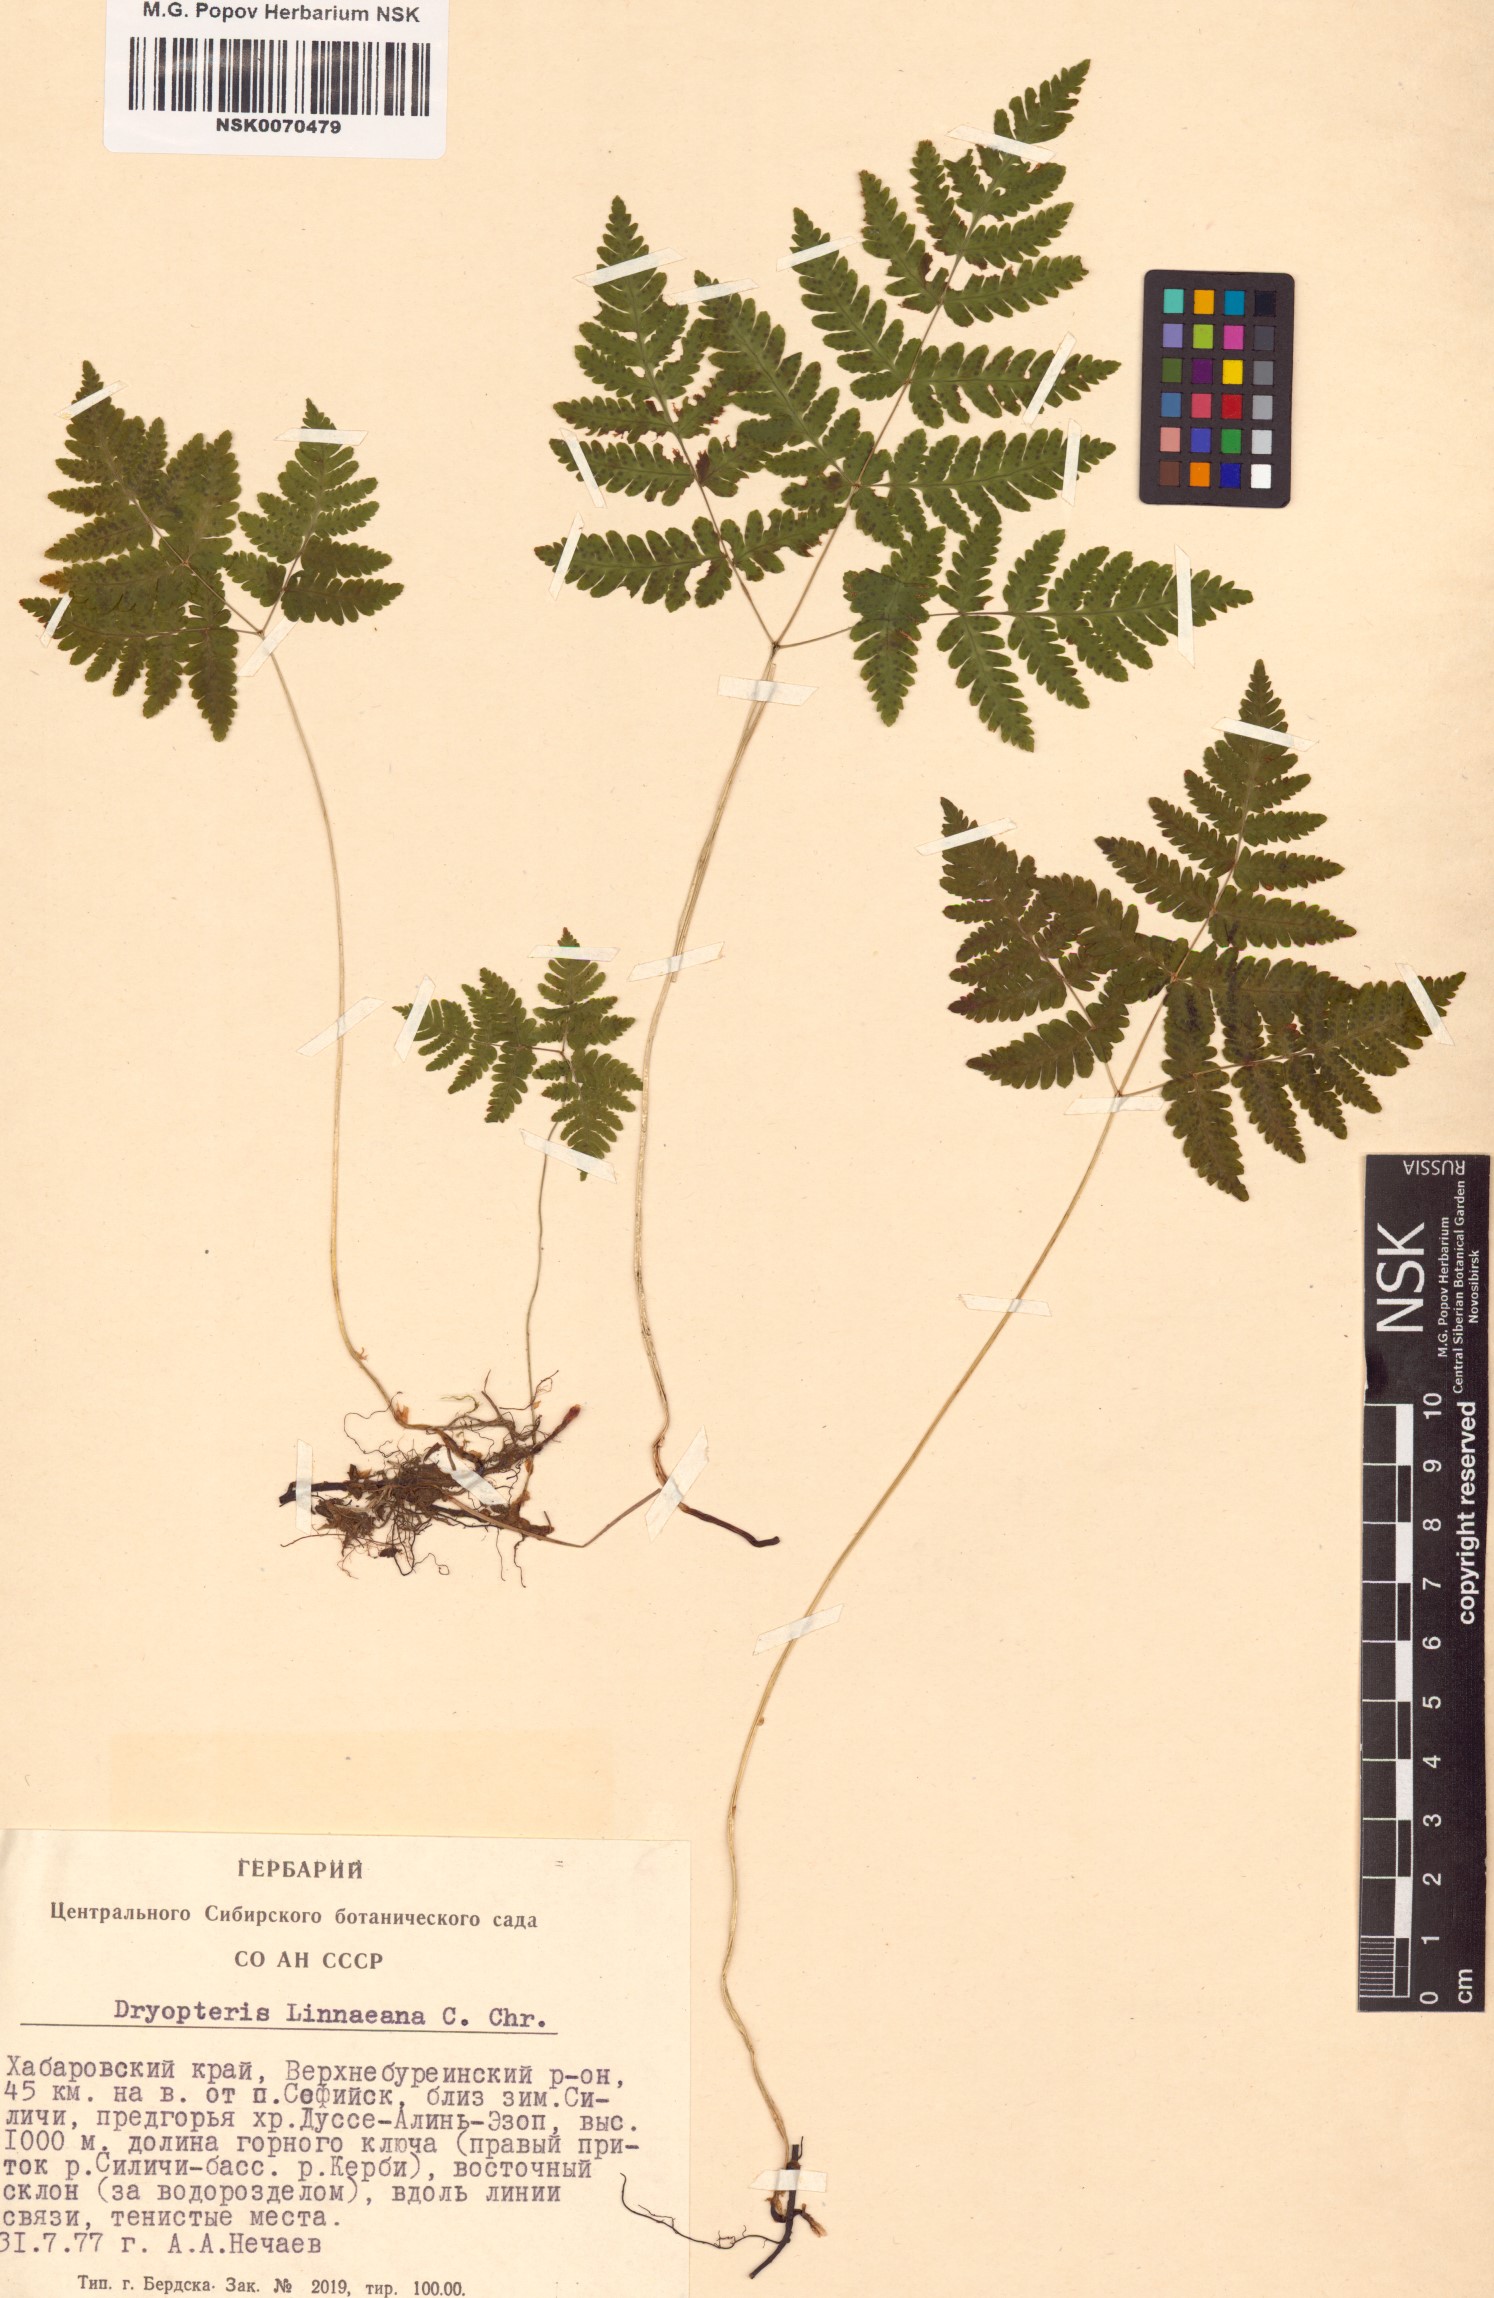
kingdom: Plantae
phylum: Tracheophyta
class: Polypodiopsida
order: Polypodiales
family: Cystopteridaceae
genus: Gymnocarpium
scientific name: Gymnocarpium dryopteris
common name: Oak fern
